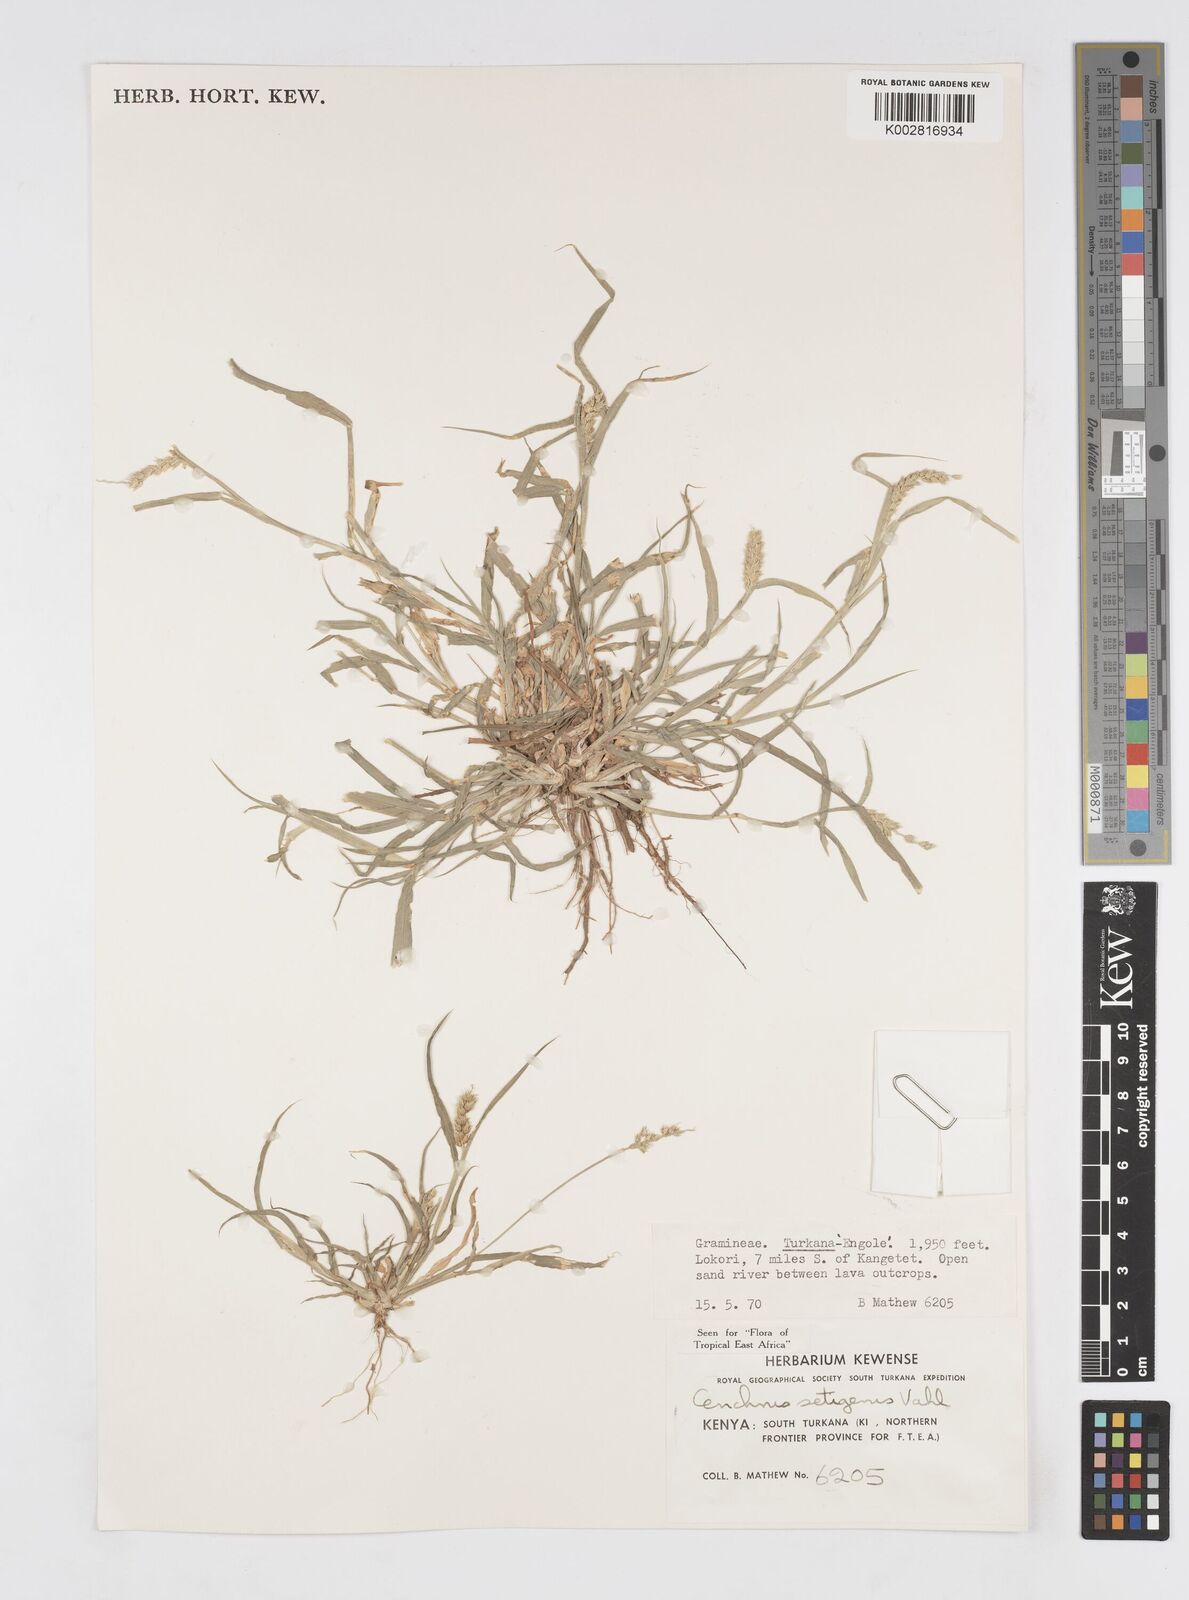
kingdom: Plantae
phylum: Tracheophyta
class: Liliopsida
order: Poales
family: Poaceae
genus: Cenchrus
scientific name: Cenchrus setigerus
